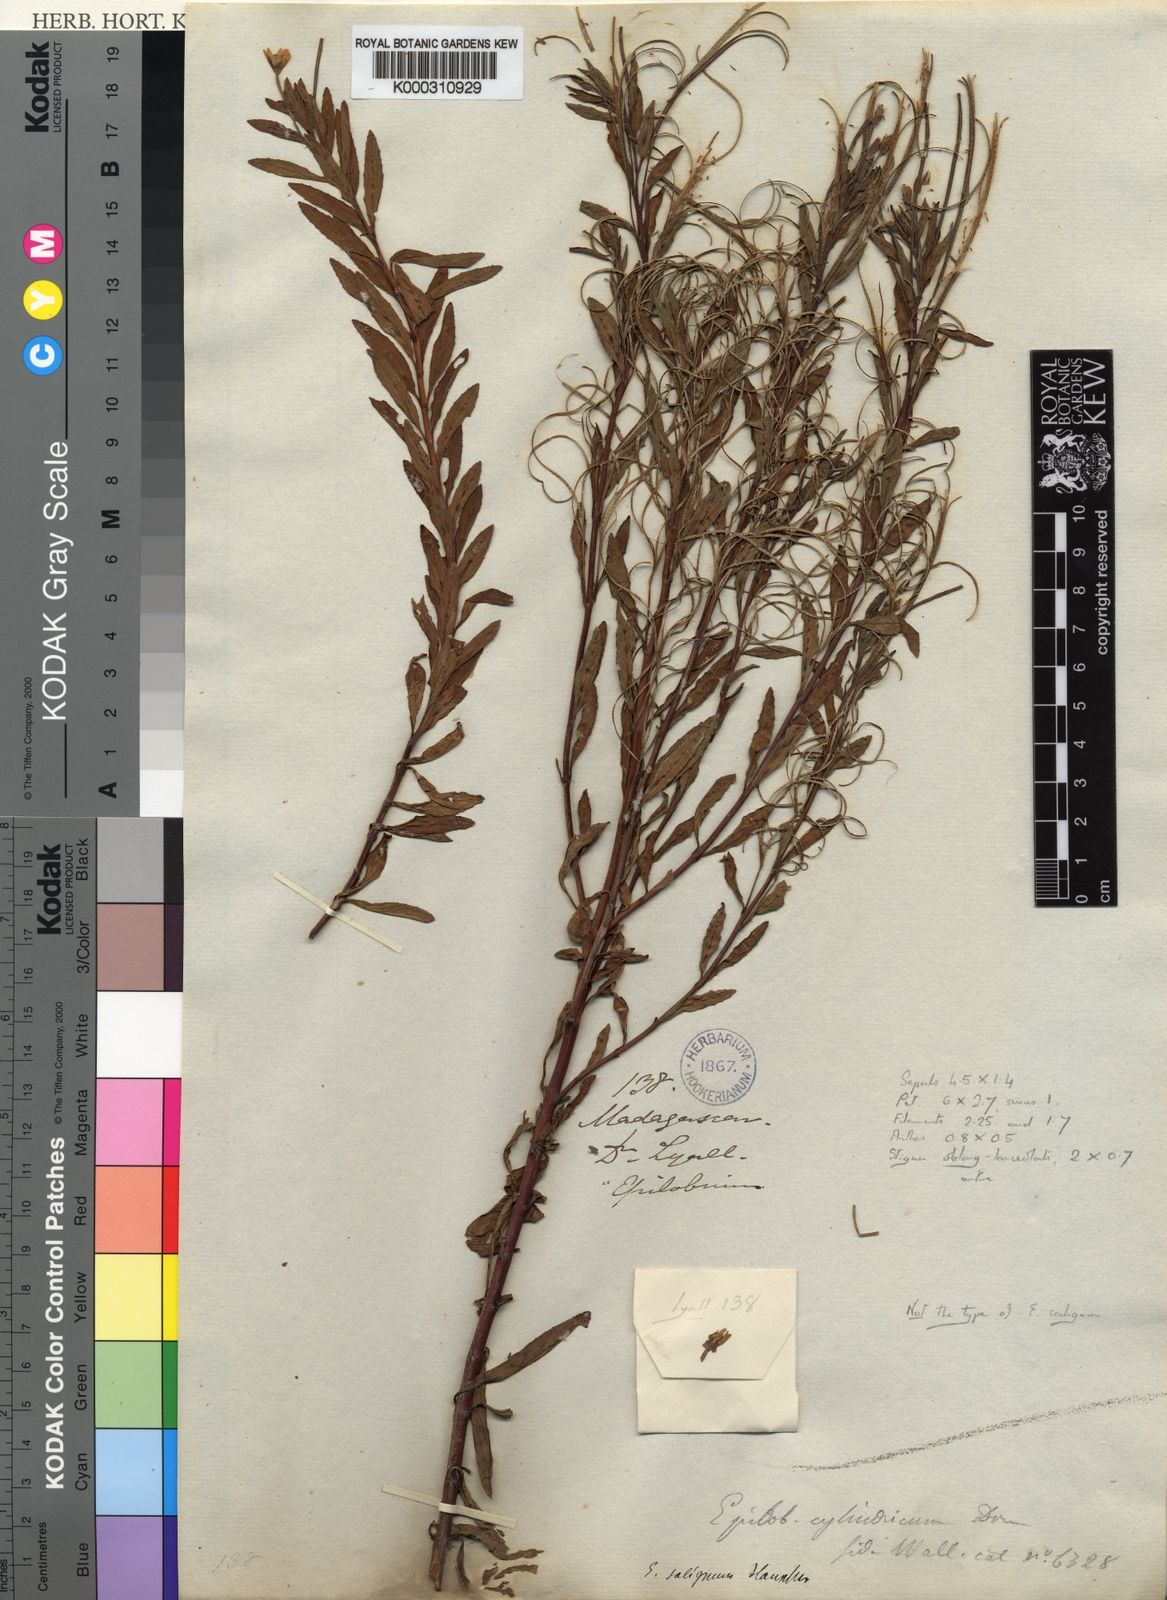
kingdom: Plantae
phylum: Tracheophyta
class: Magnoliopsida
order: Myrtales
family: Onagraceae
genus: Epilobium
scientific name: Epilobium salignum
